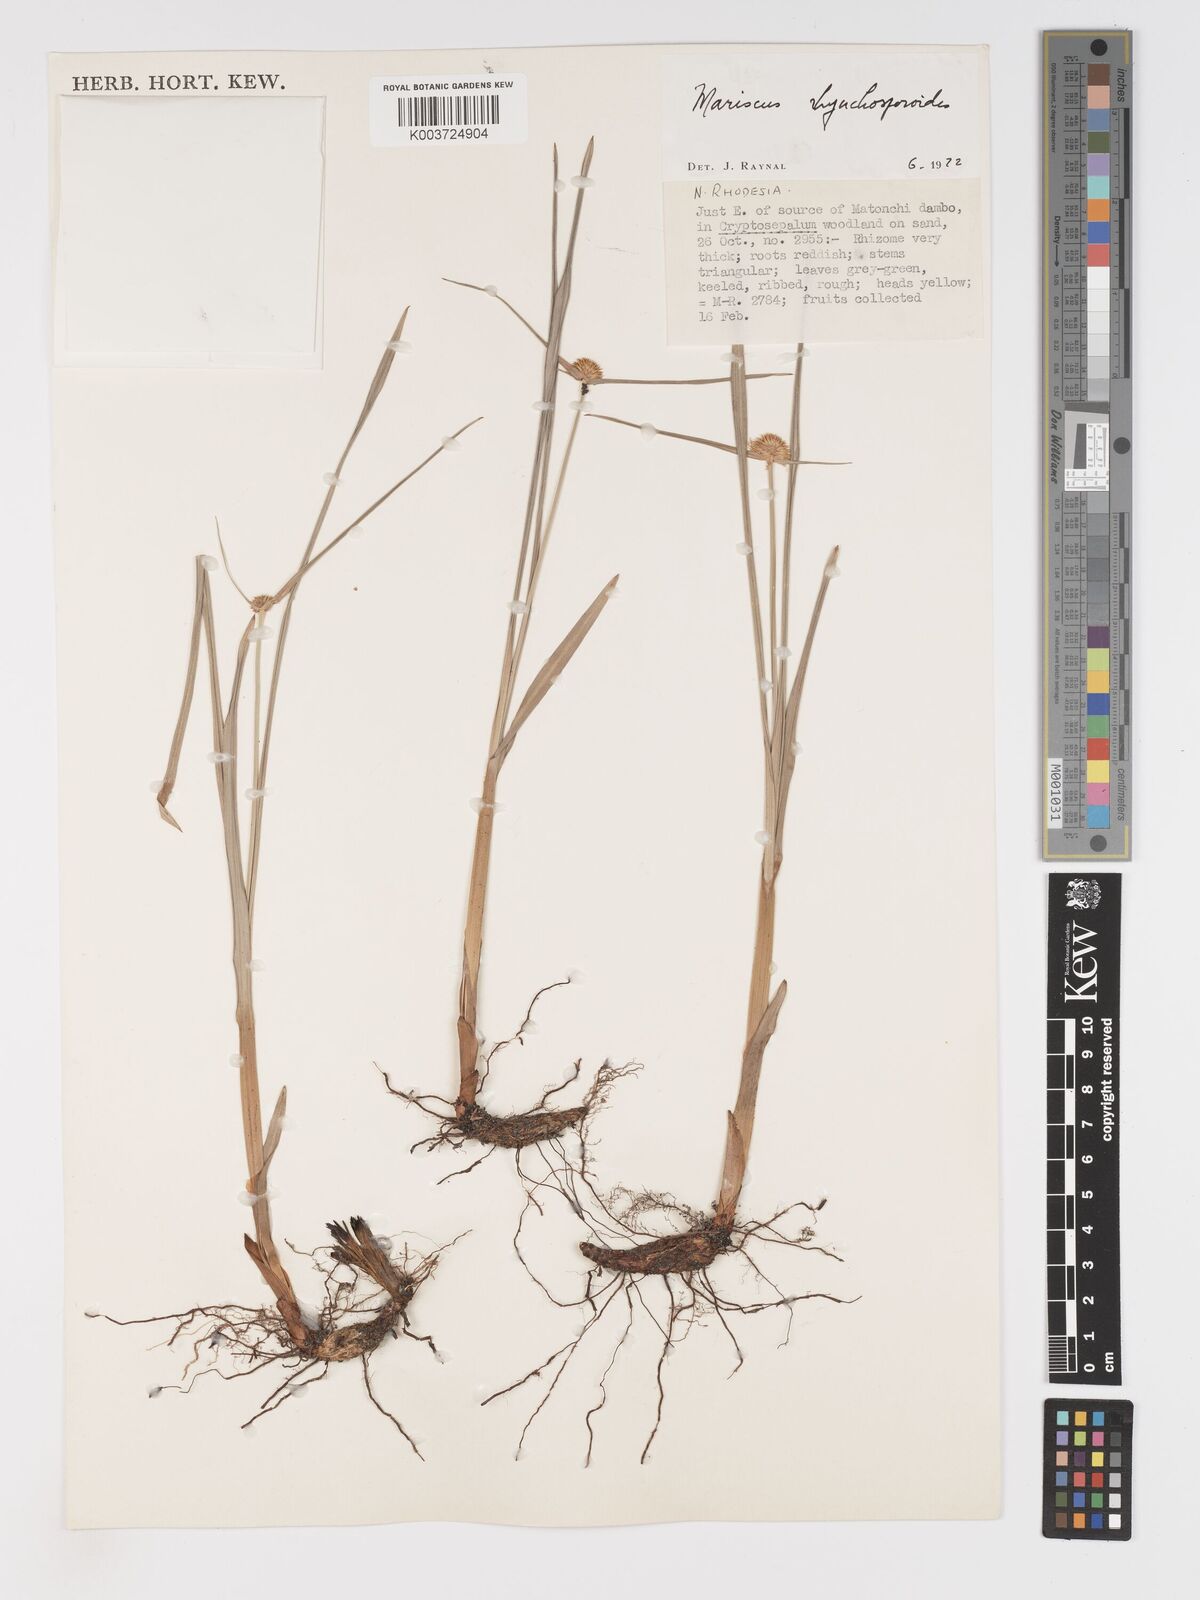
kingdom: Plantae
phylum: Tracheophyta
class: Liliopsida
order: Poales
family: Cyperaceae
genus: Cyperus
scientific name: Cyperus altochrysocephalus
